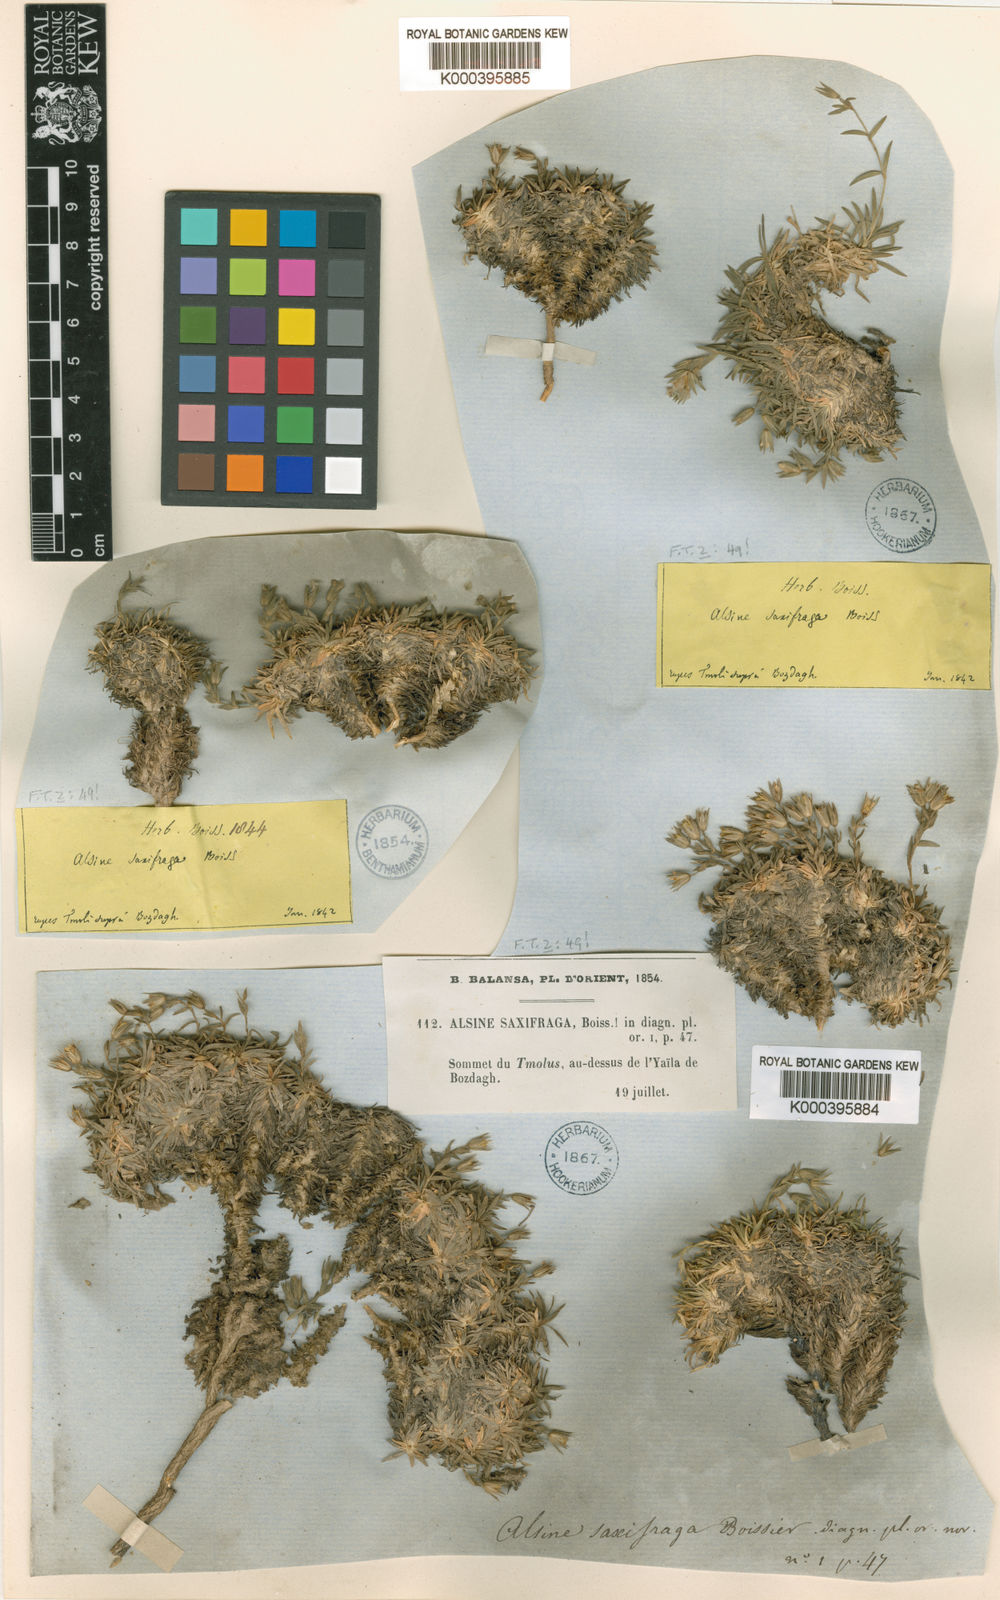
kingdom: Plantae
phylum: Tracheophyta
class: Magnoliopsida
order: Caryophyllales
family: Caryophyllaceae
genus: Mcneillia
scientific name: Mcneillia saxifraga
